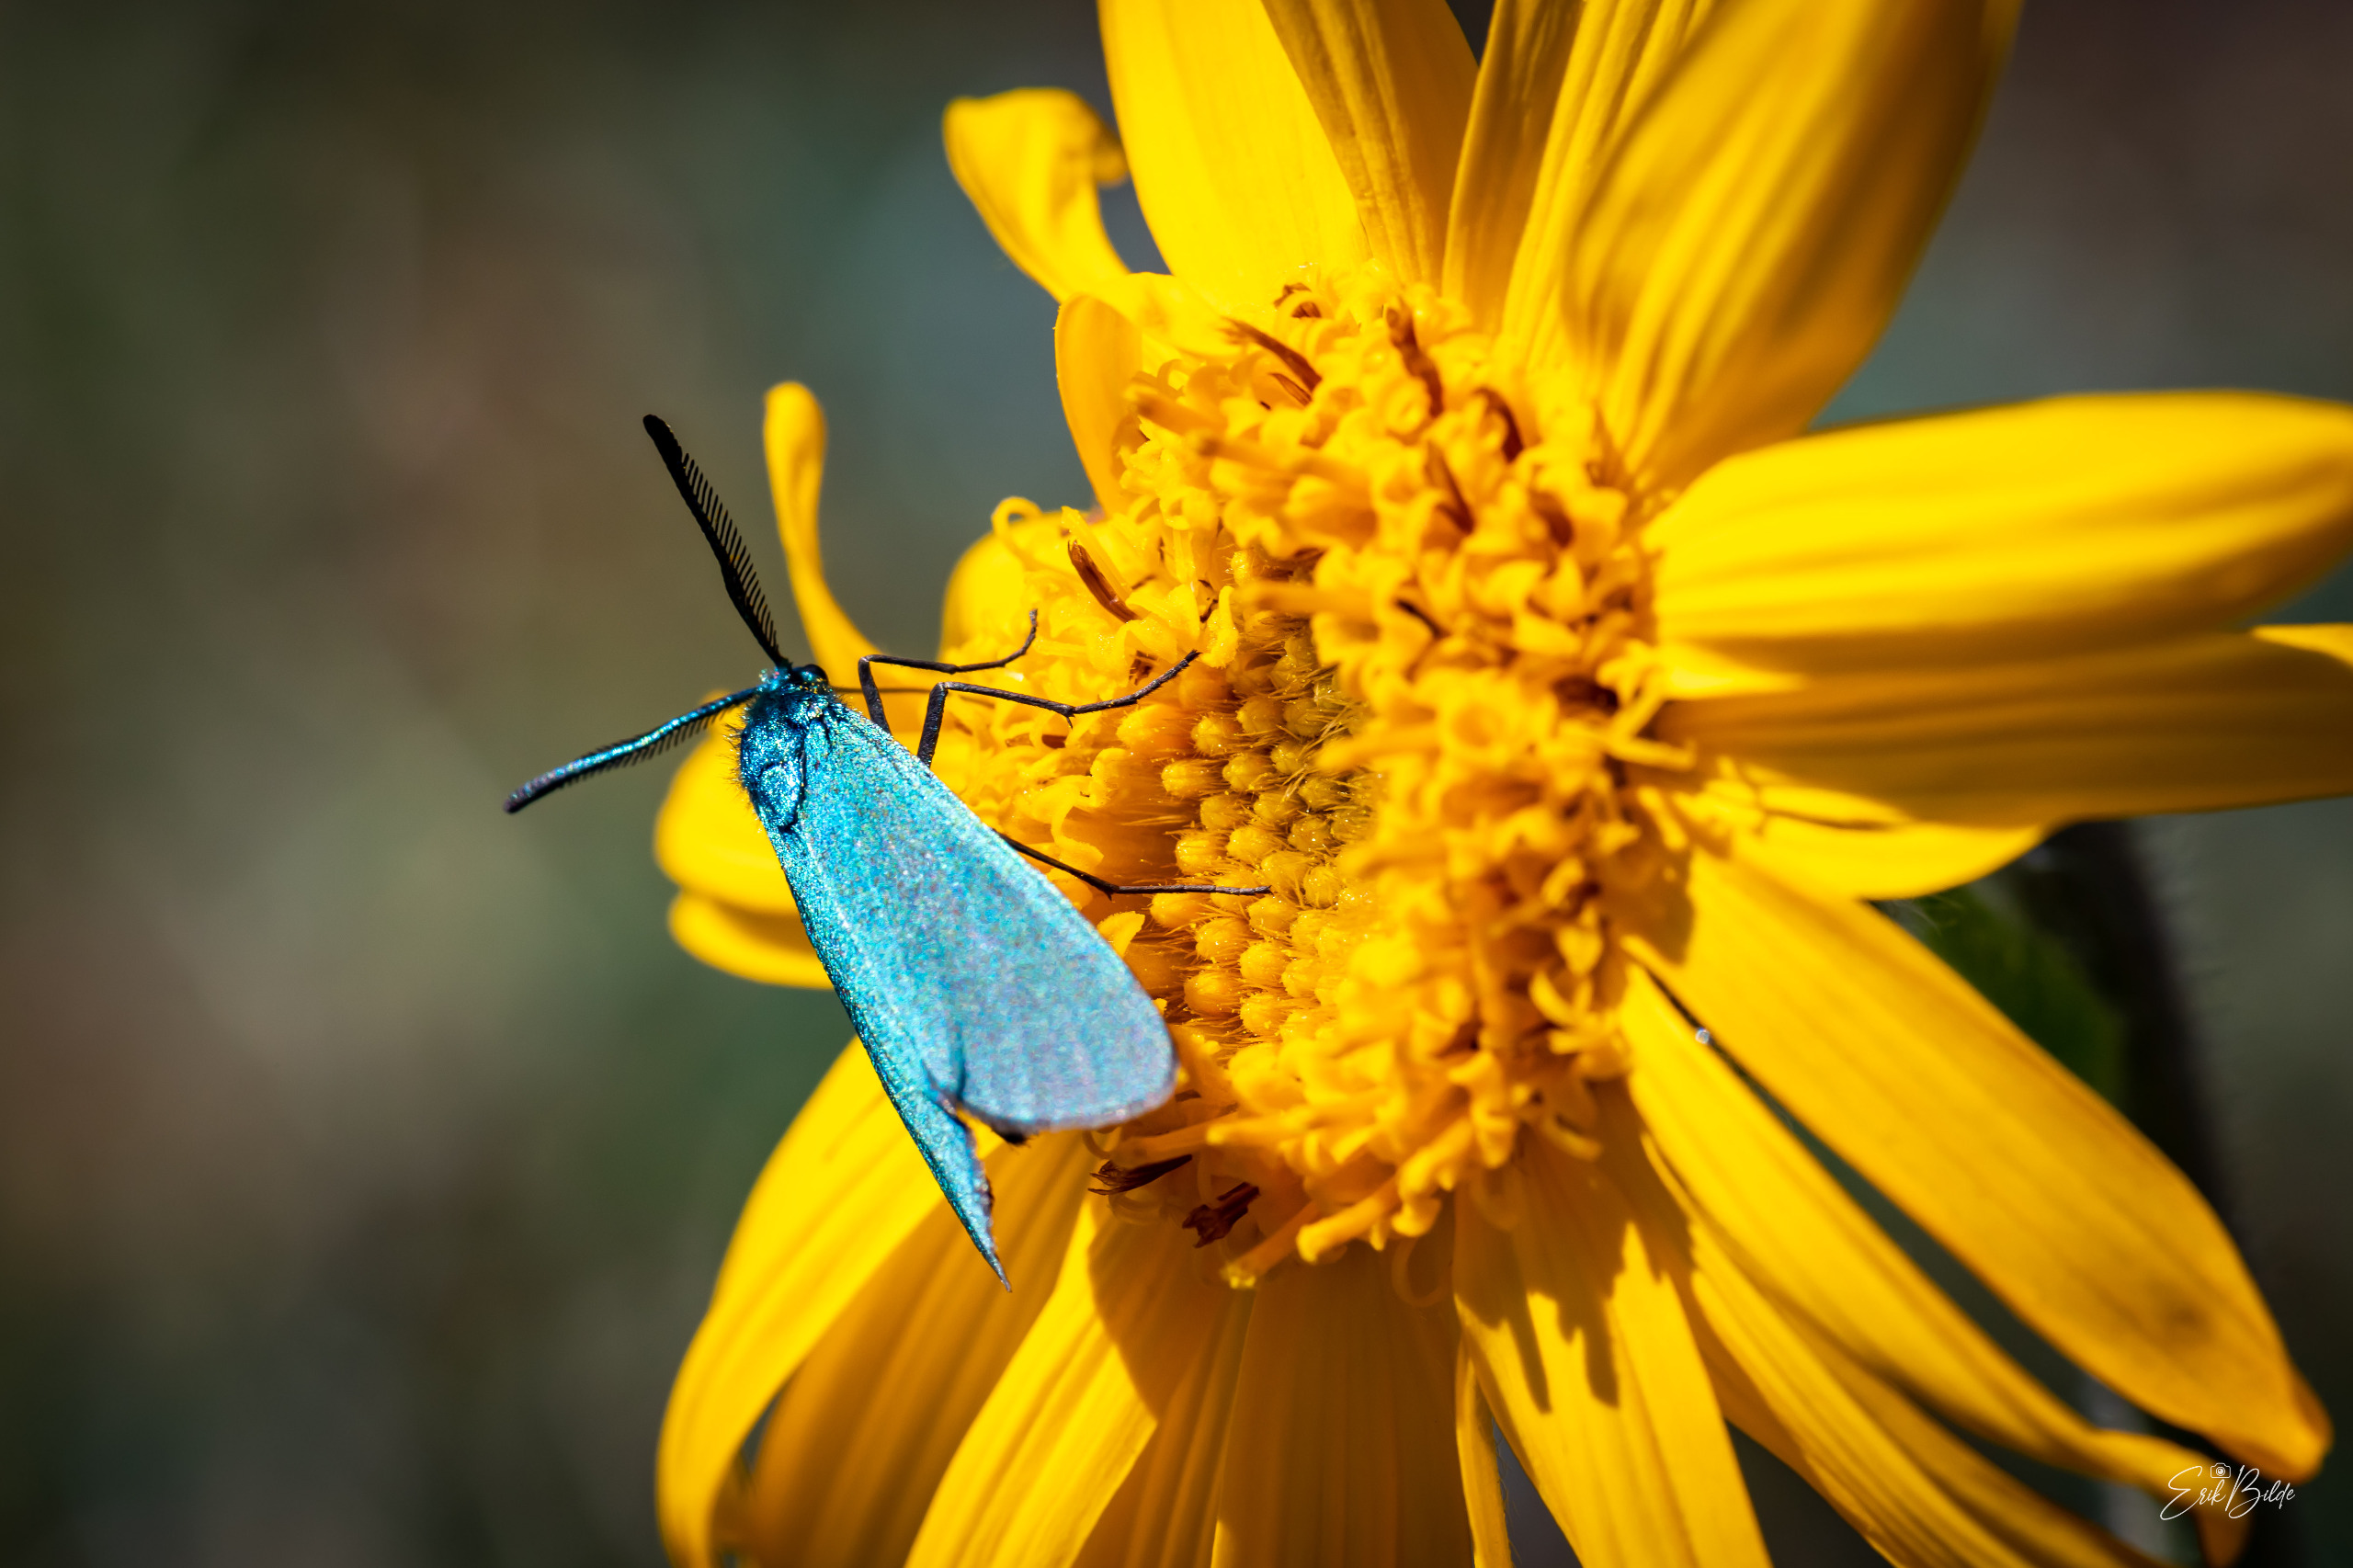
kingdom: Animalia
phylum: Arthropoda
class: Insecta
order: Lepidoptera
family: Zygaenidae
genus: Adscita
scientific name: Adscita statices
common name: Metalvinge
